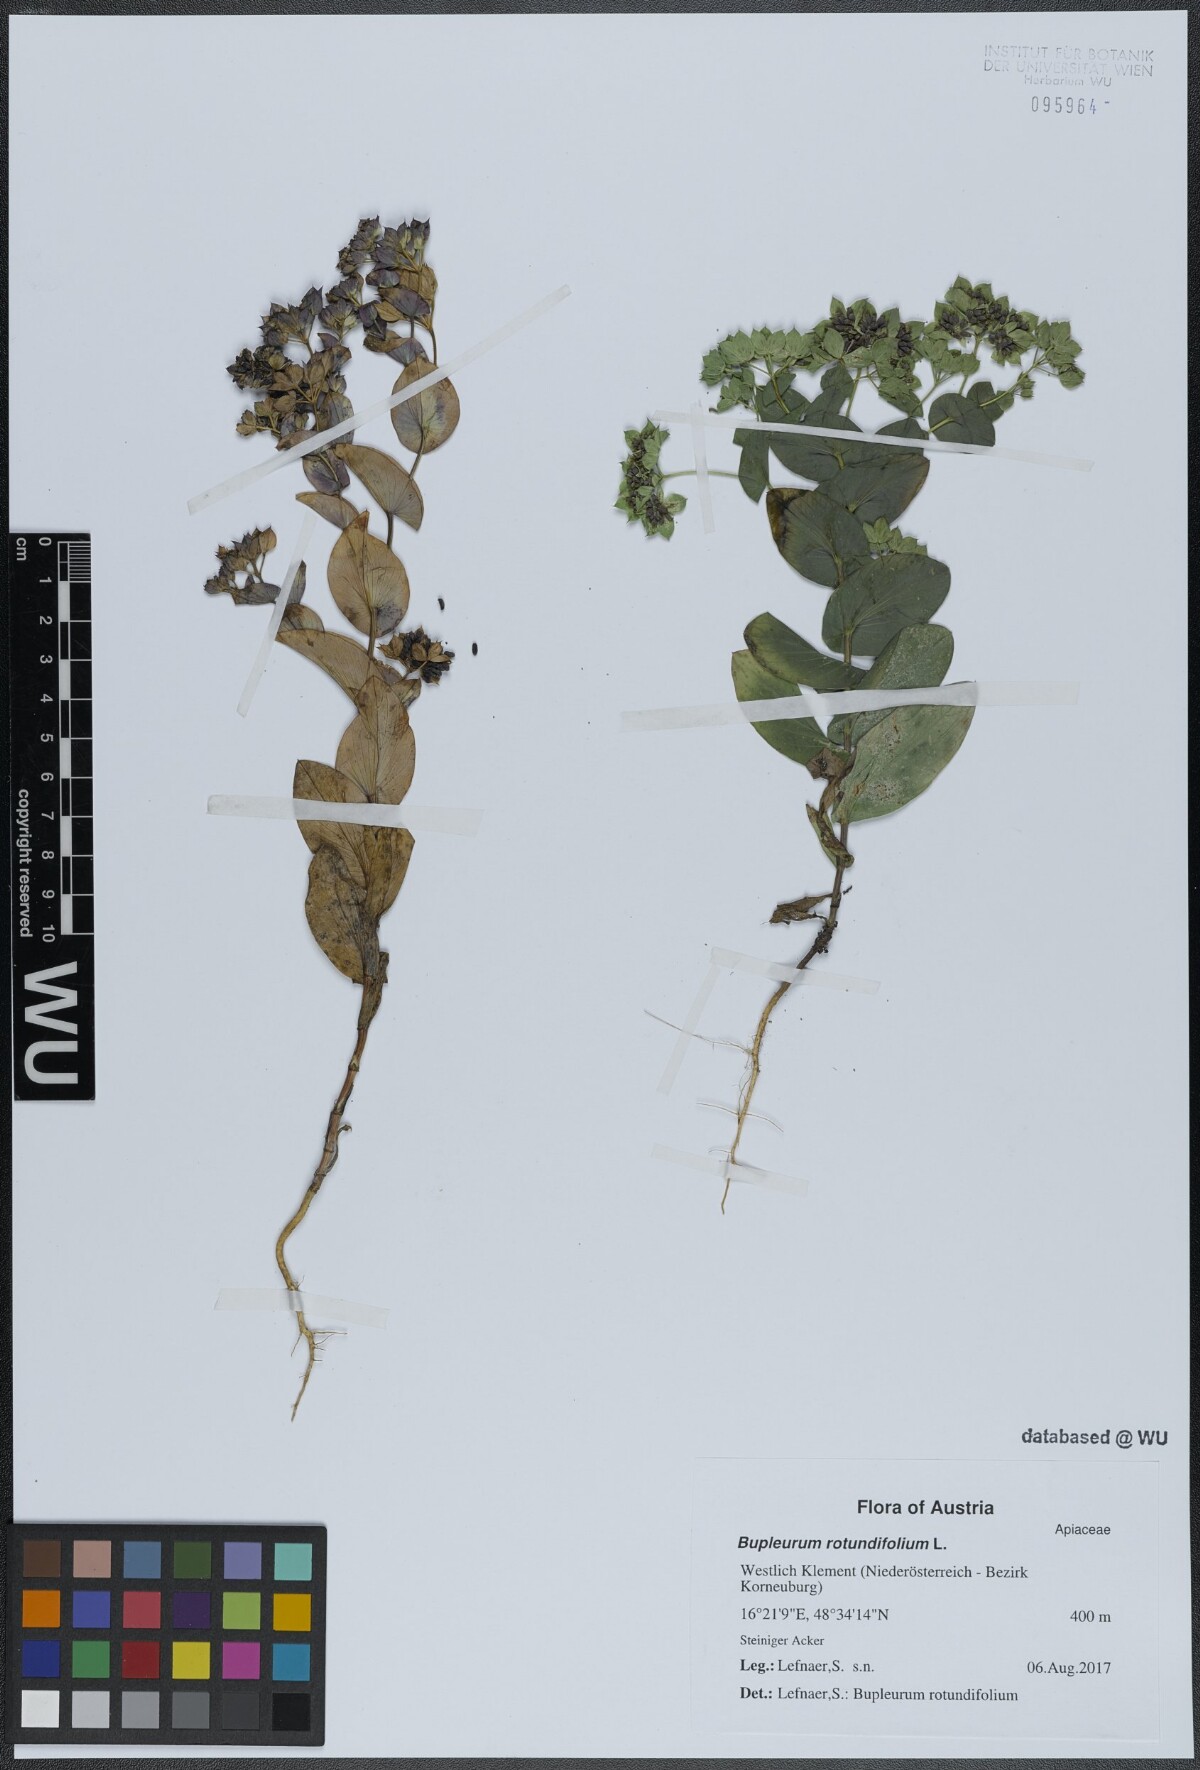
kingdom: Plantae
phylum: Tracheophyta
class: Magnoliopsida
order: Apiales
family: Apiaceae
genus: Bupleurum
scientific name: Bupleurum rotundifolium
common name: Thorow-wax
